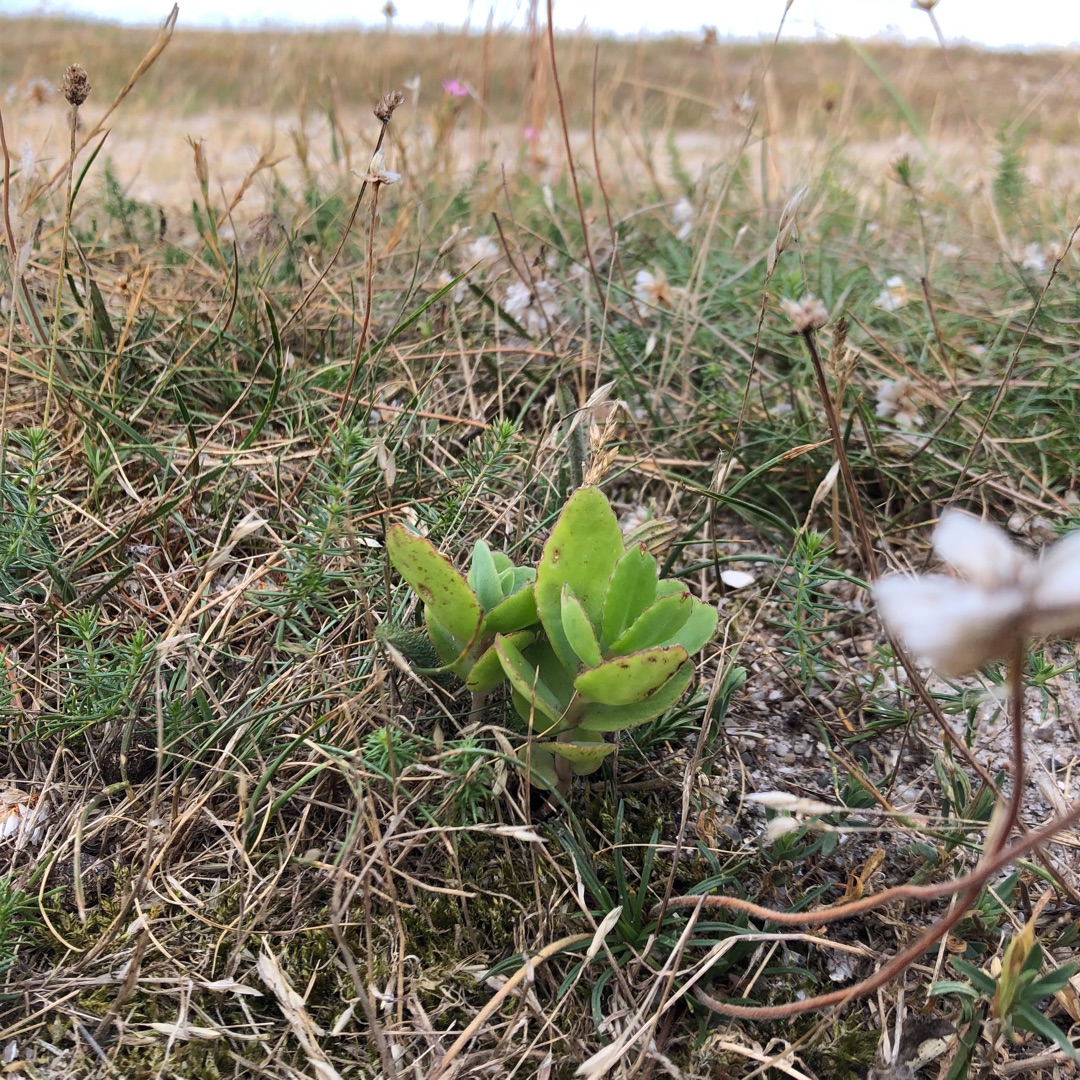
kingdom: Plantae
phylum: Tracheophyta
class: Magnoliopsida
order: Saxifragales
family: Crassulaceae
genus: Hylotelephium
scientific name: Hylotelephium telephium
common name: Sankthansurt
